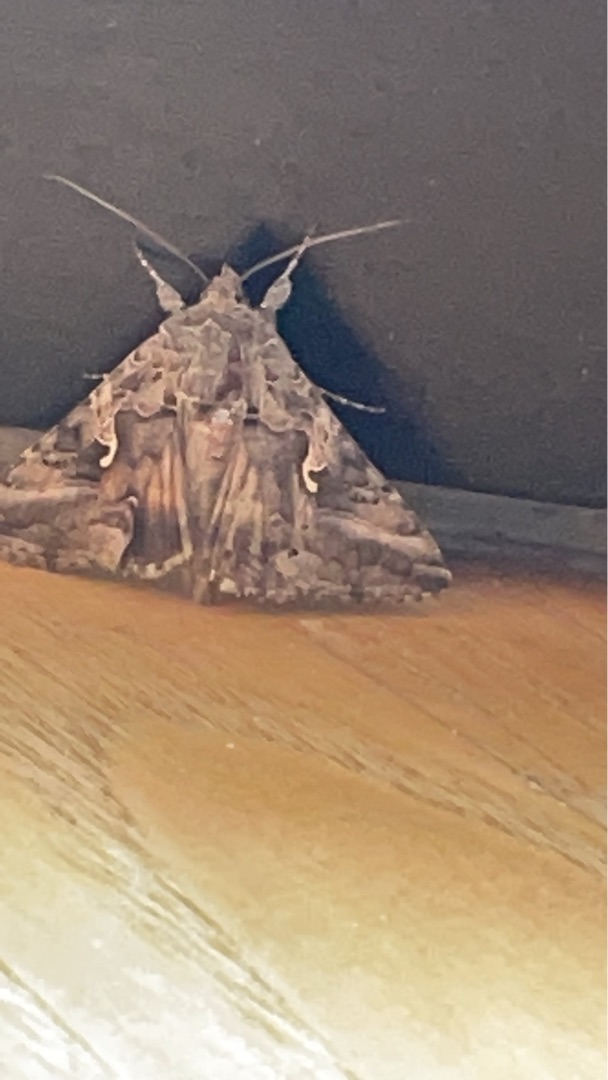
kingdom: Animalia
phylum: Arthropoda
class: Insecta
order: Lepidoptera
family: Noctuidae
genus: Autographa
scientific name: Autographa gamma
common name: Gammaugle
